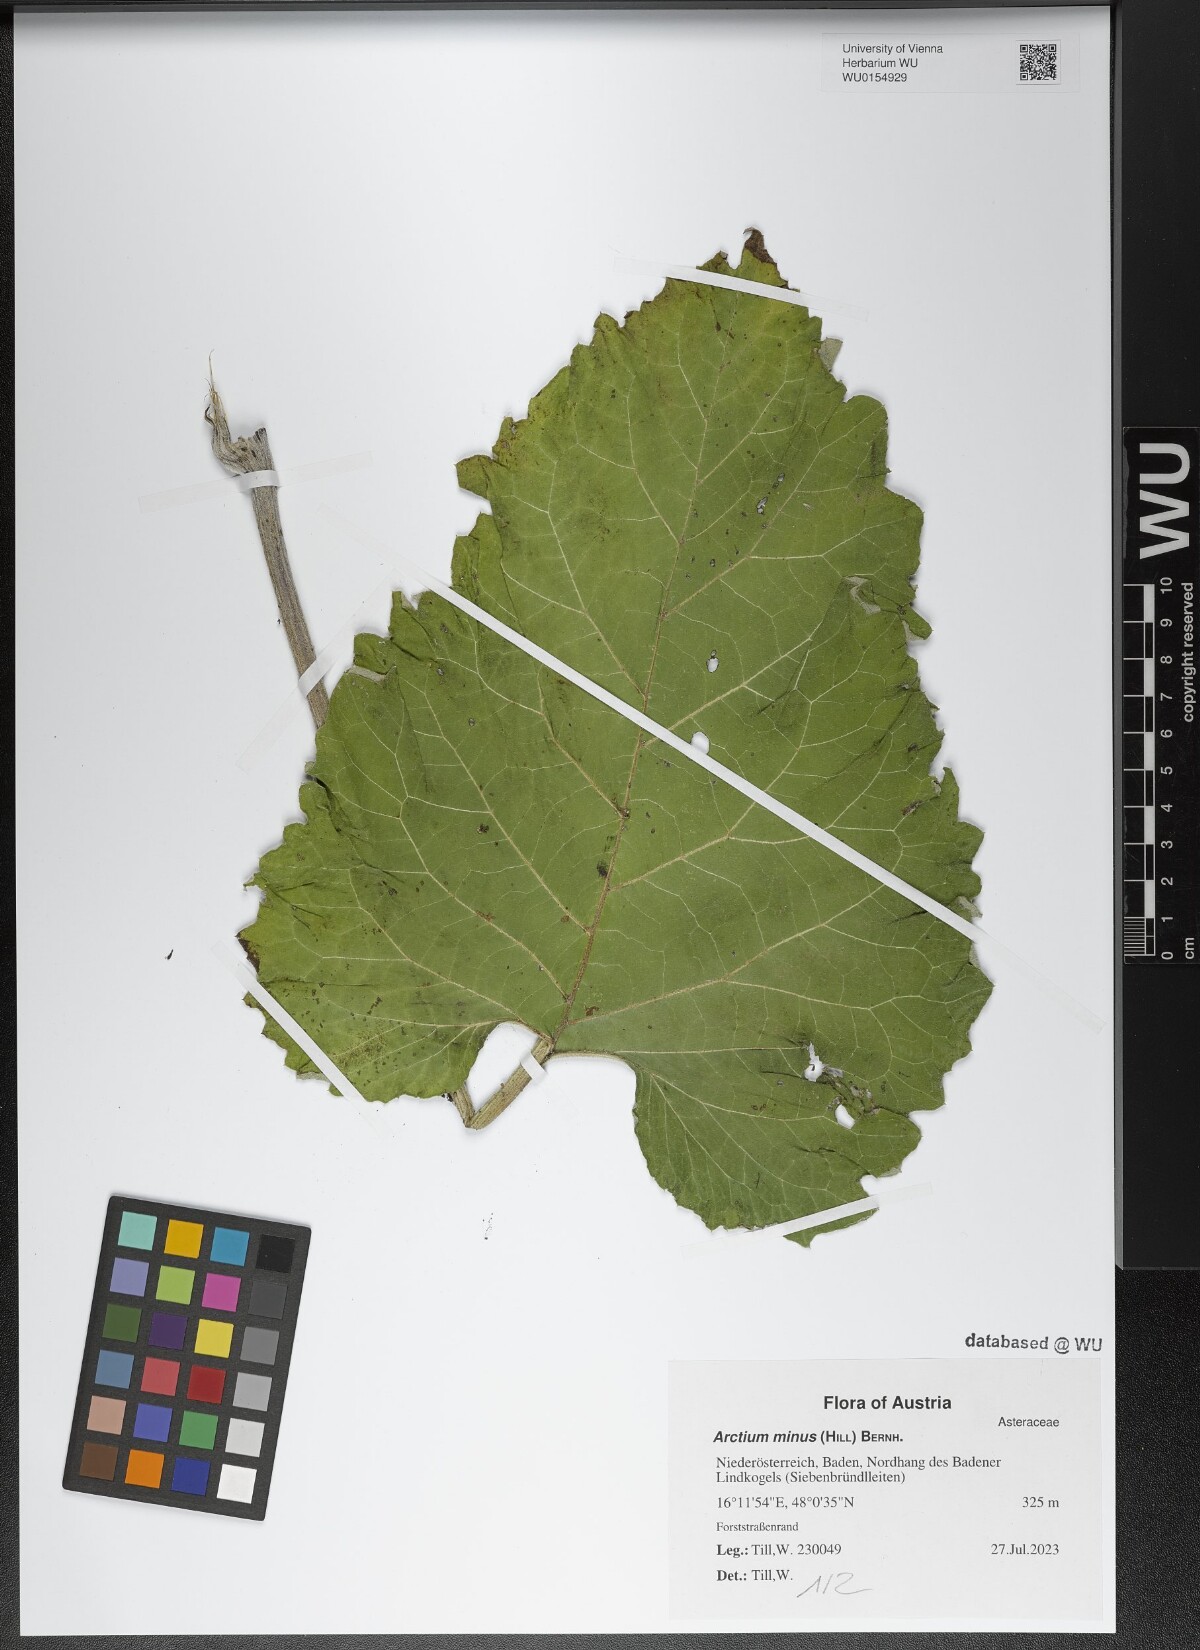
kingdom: Plantae
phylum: Tracheophyta
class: Magnoliopsida
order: Asterales
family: Asteraceae
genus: Arctium
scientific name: Arctium minus
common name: Lesser burdock
